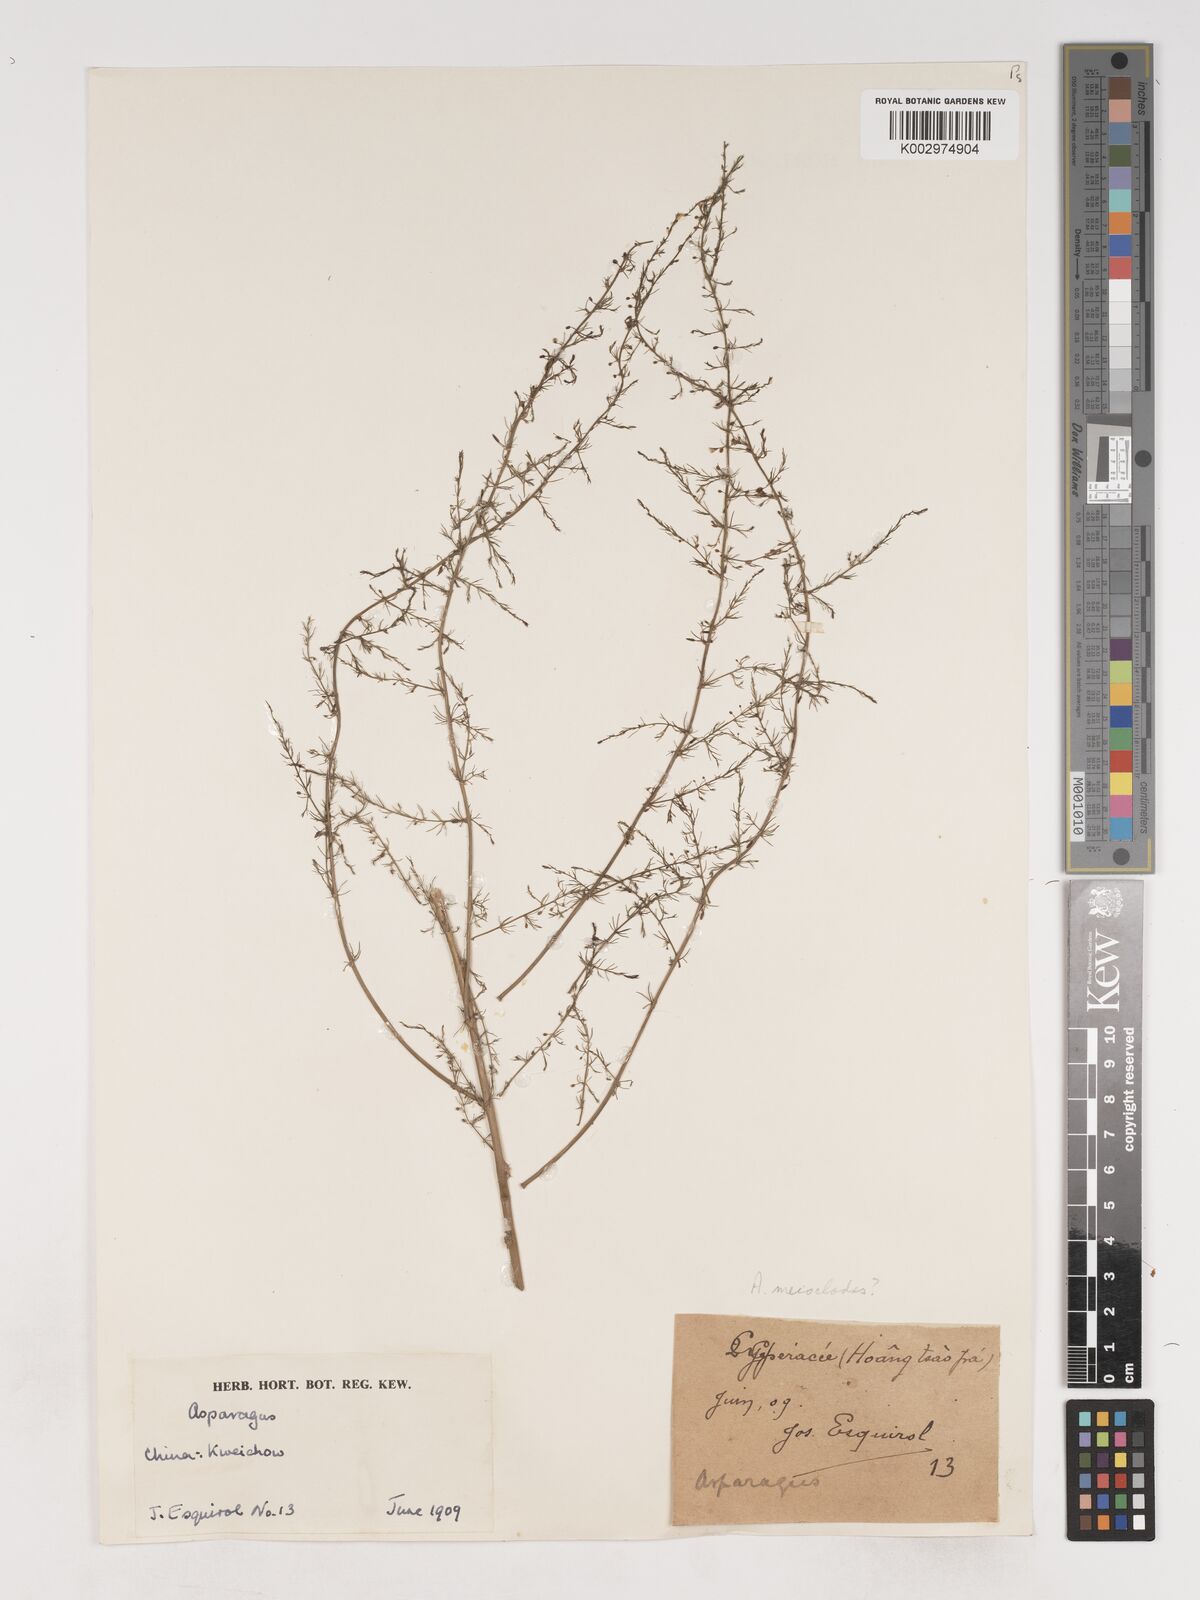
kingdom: Plantae
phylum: Tracheophyta
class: Liliopsida
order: Asparagales
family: Asparagaceae
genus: Asparagus
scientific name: Asparagus meioclados
